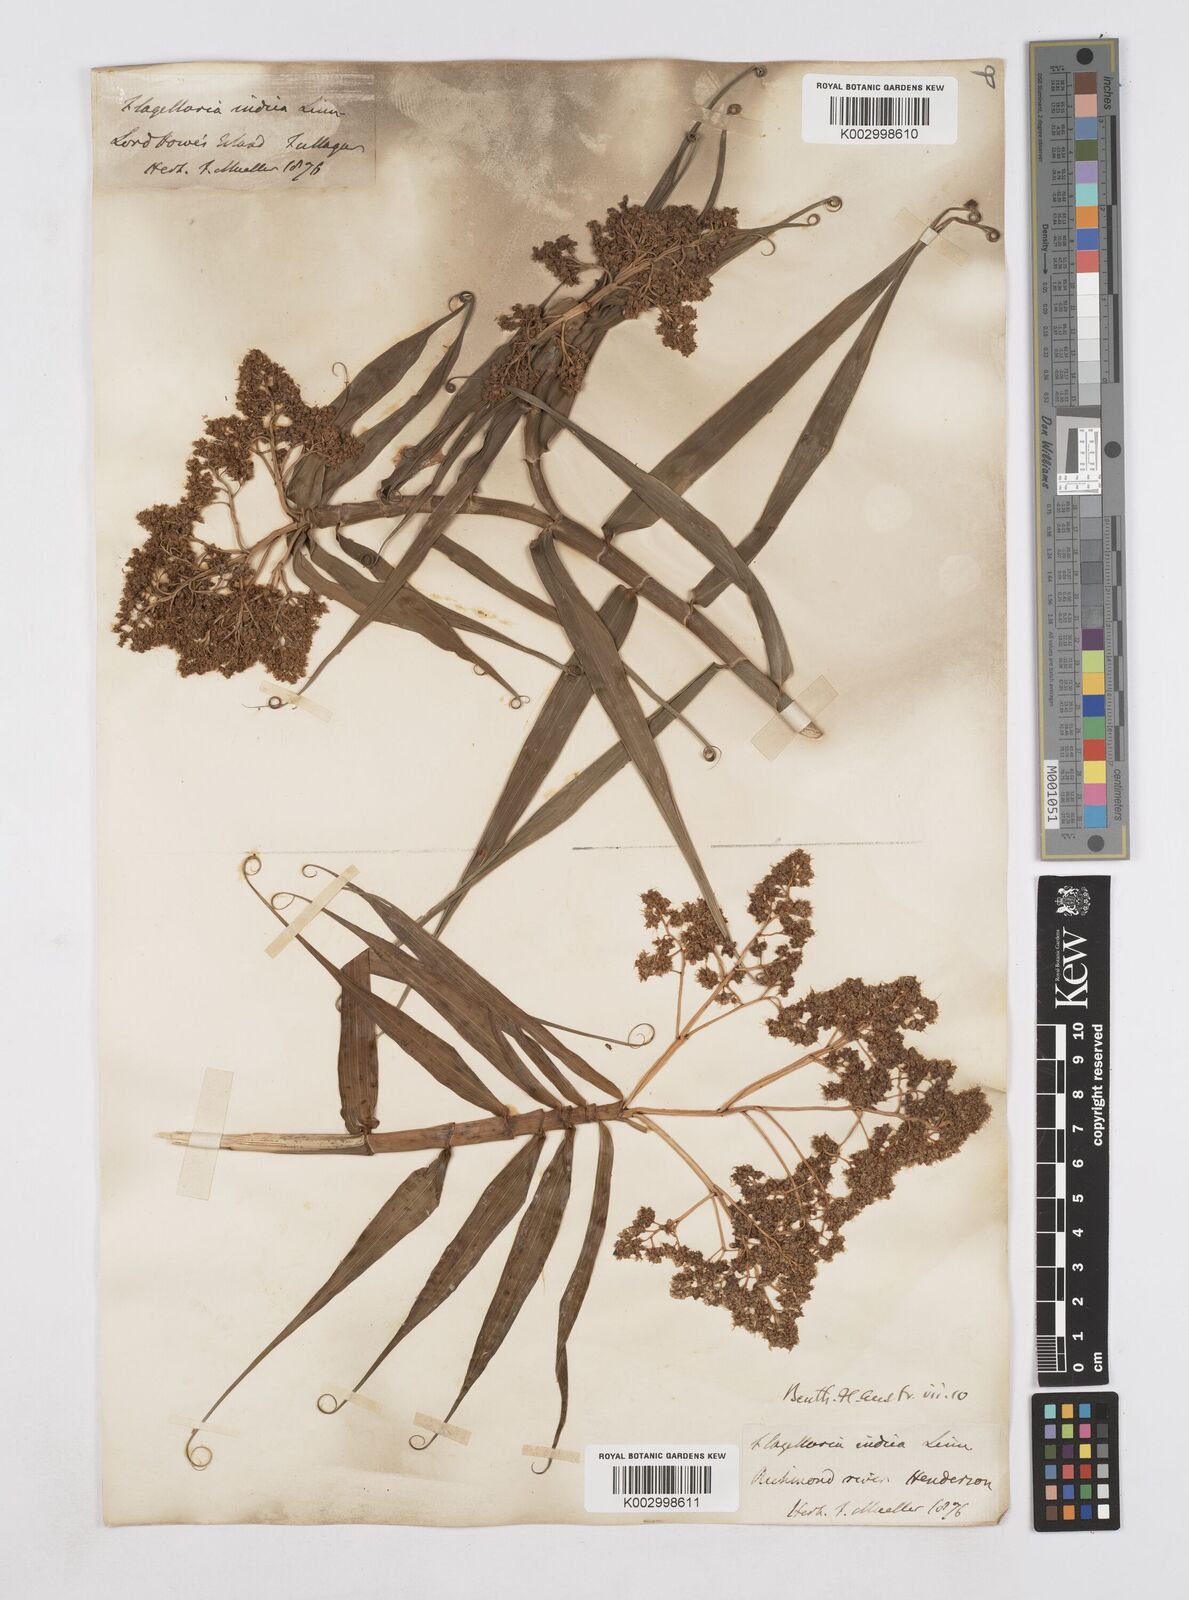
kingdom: Plantae
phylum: Tracheophyta
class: Liliopsida
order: Poales
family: Flagellariaceae
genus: Flagellaria
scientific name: Flagellaria indica
